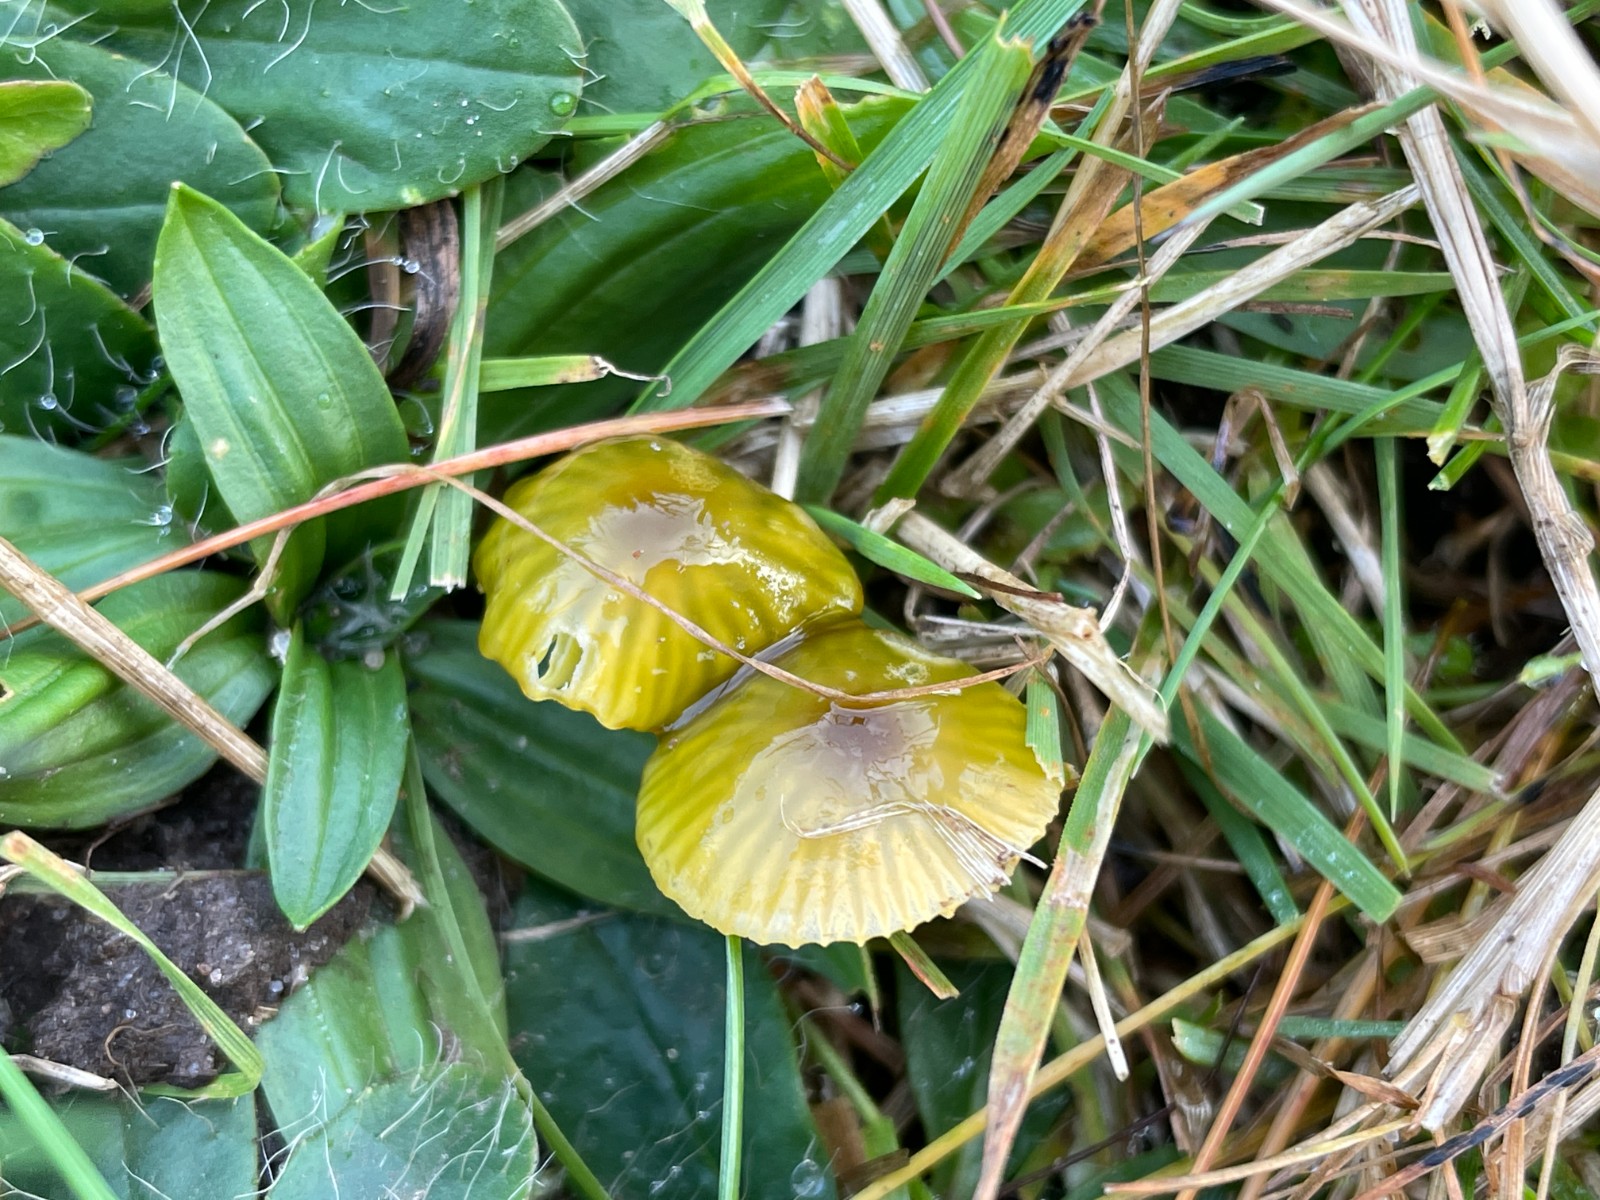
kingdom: Fungi
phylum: Basidiomycota
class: Agaricomycetes
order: Agaricales
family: Hygrophoraceae
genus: Gliophorus
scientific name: Gliophorus psittacinus
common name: papegøje-vokshat
